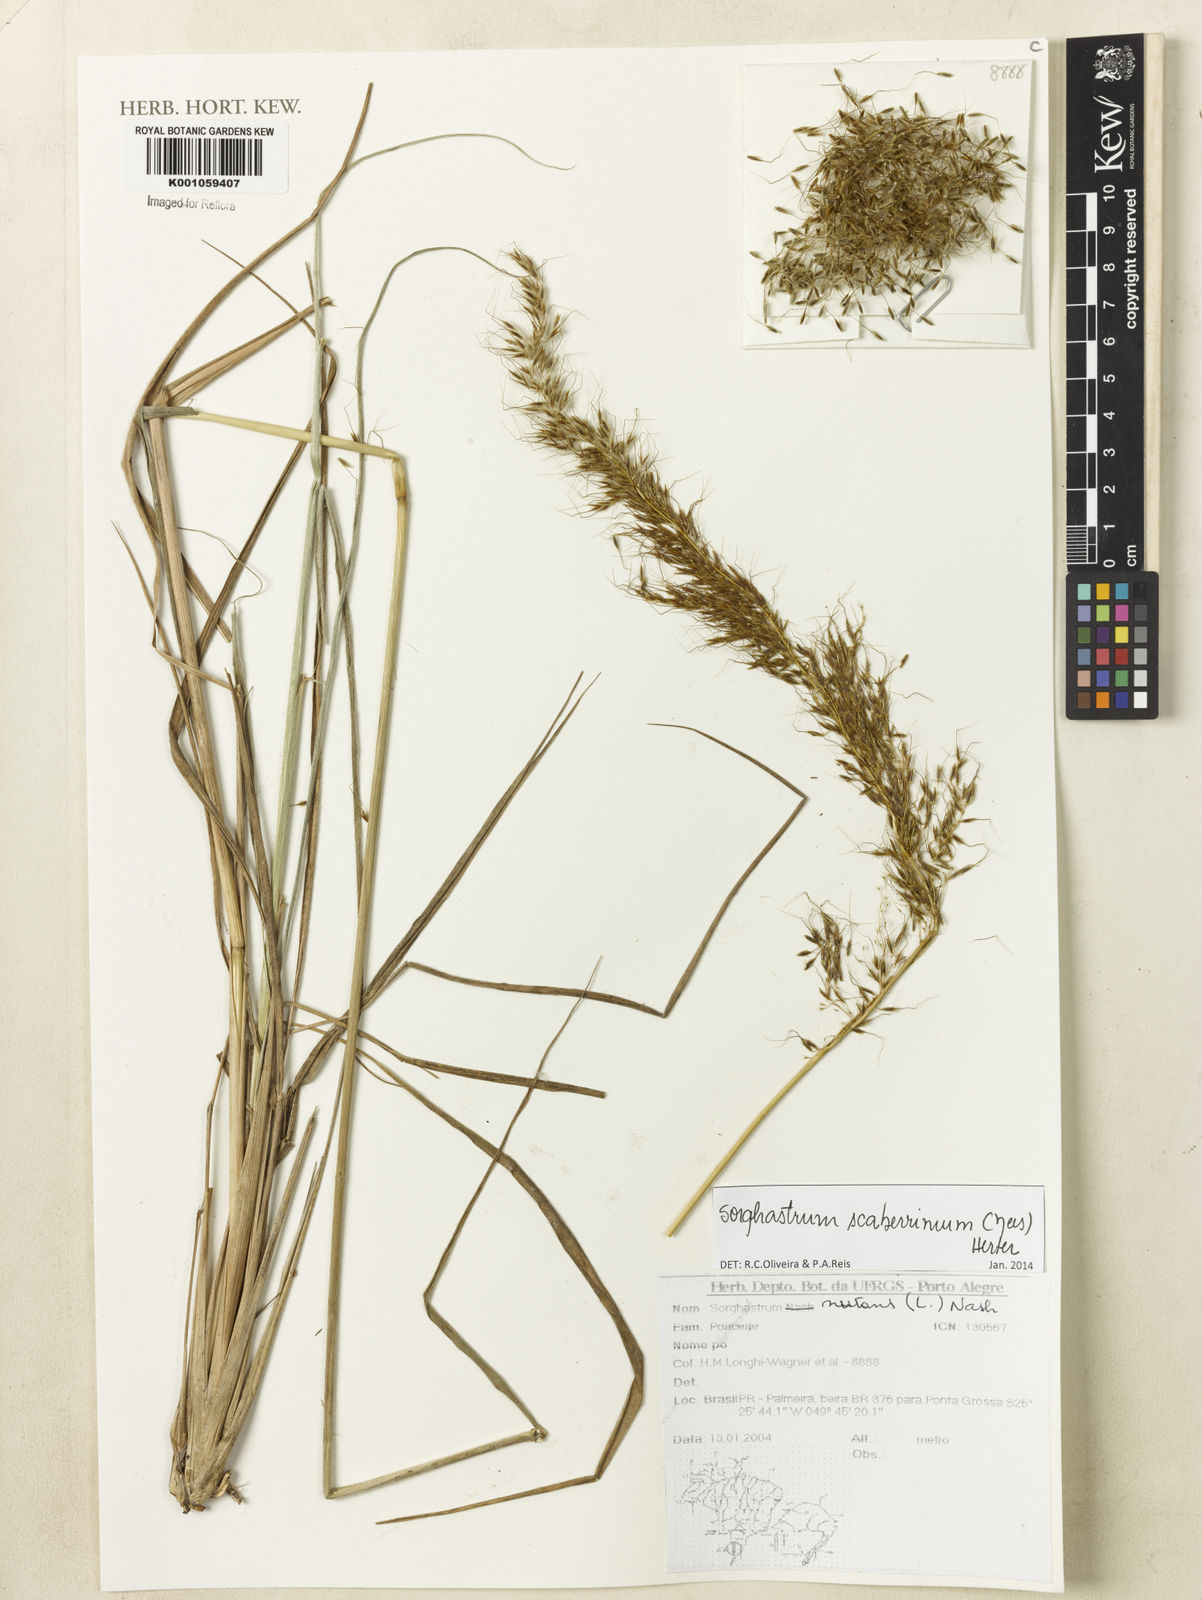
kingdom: Plantae
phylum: Tracheophyta
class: Liliopsida
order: Poales
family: Poaceae
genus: Sorghastrum
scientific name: Sorghastrum scaberrimum
